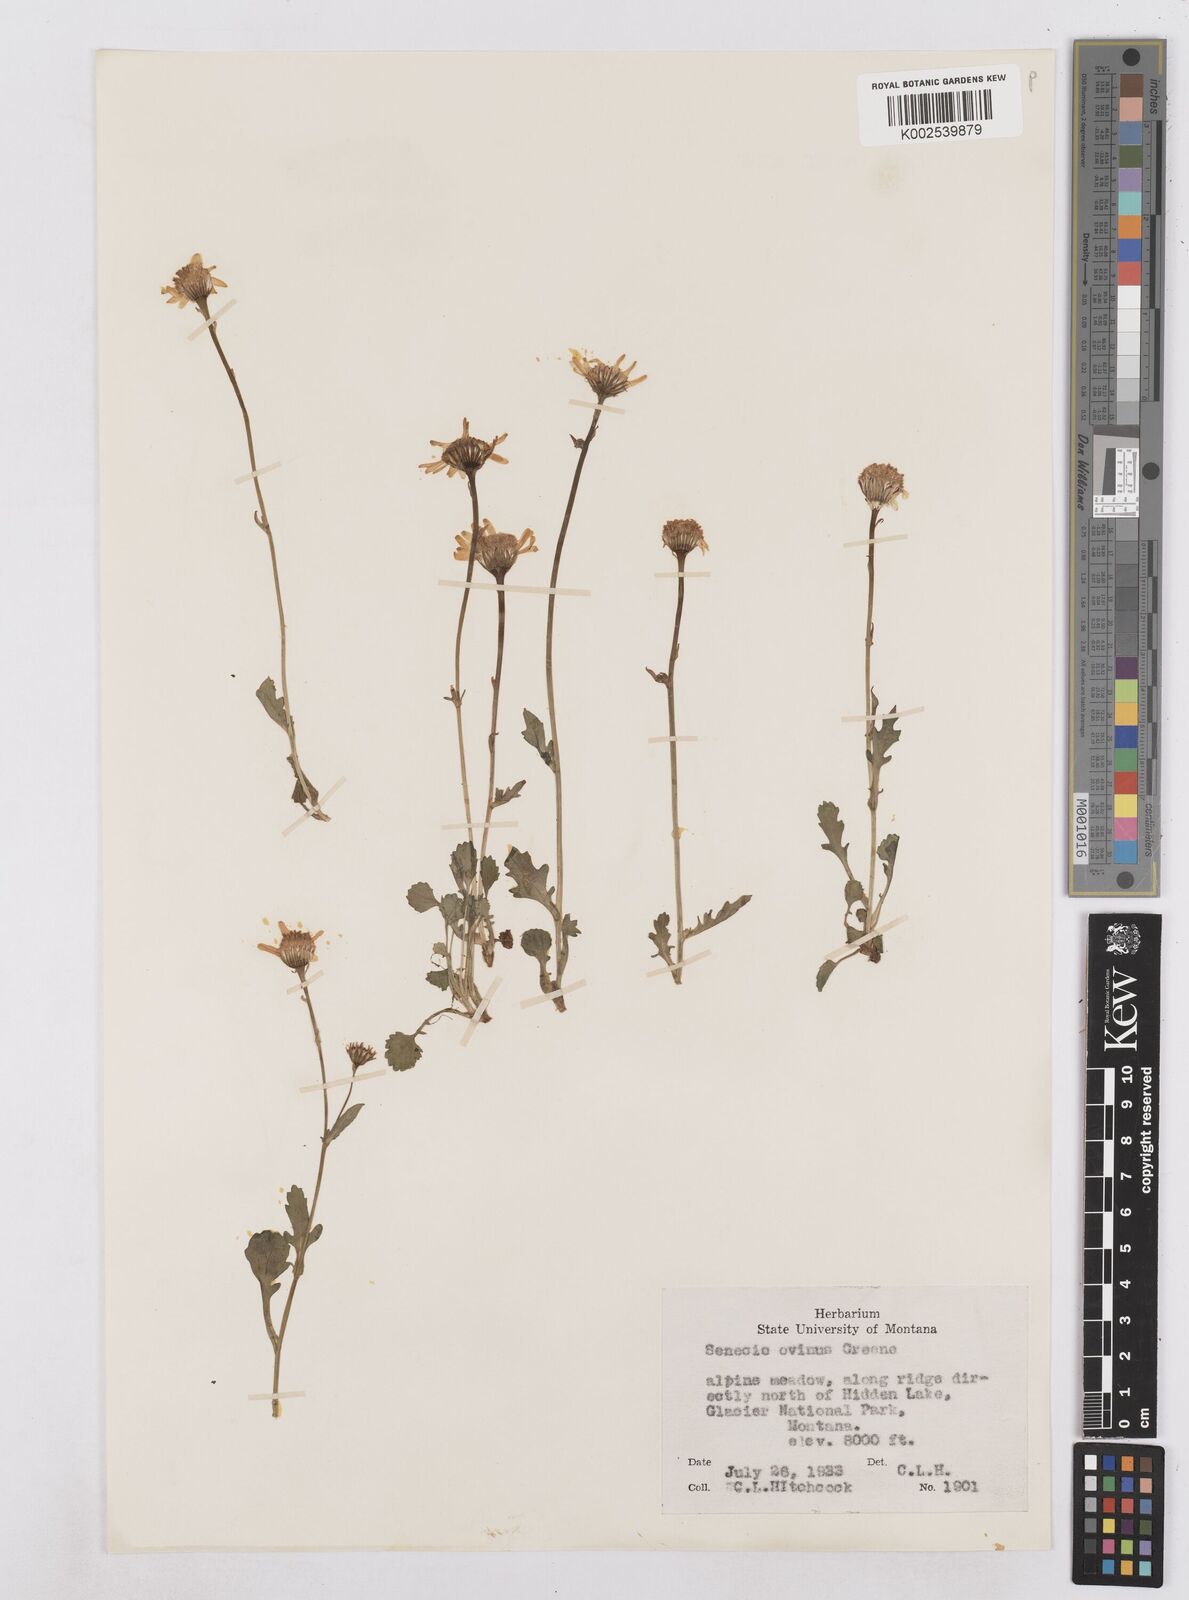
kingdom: Plantae
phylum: Tracheophyta
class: Magnoliopsida
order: Asterales
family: Asteraceae
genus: Packera
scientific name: Packera cymbalaria
